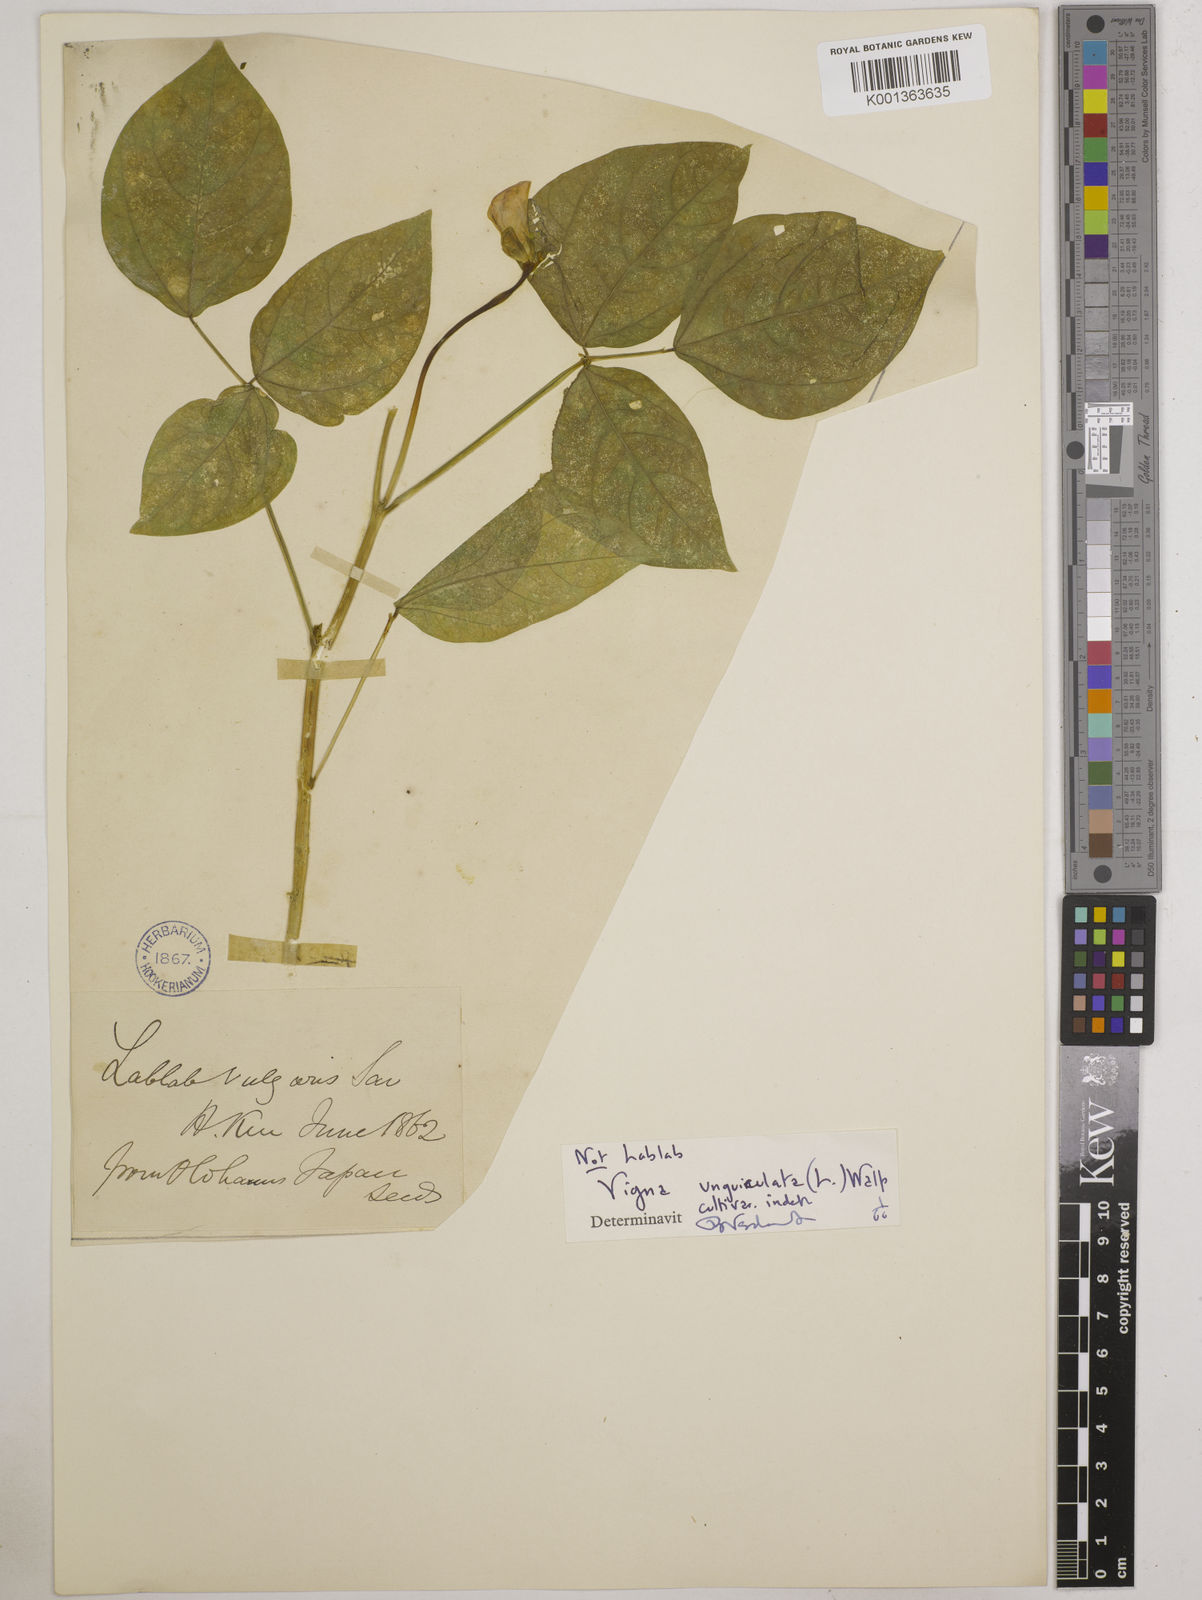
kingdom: Plantae
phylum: Tracheophyta
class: Magnoliopsida
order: Fabales
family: Fabaceae
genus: Vigna
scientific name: Vigna unguiculata
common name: Cowpea
